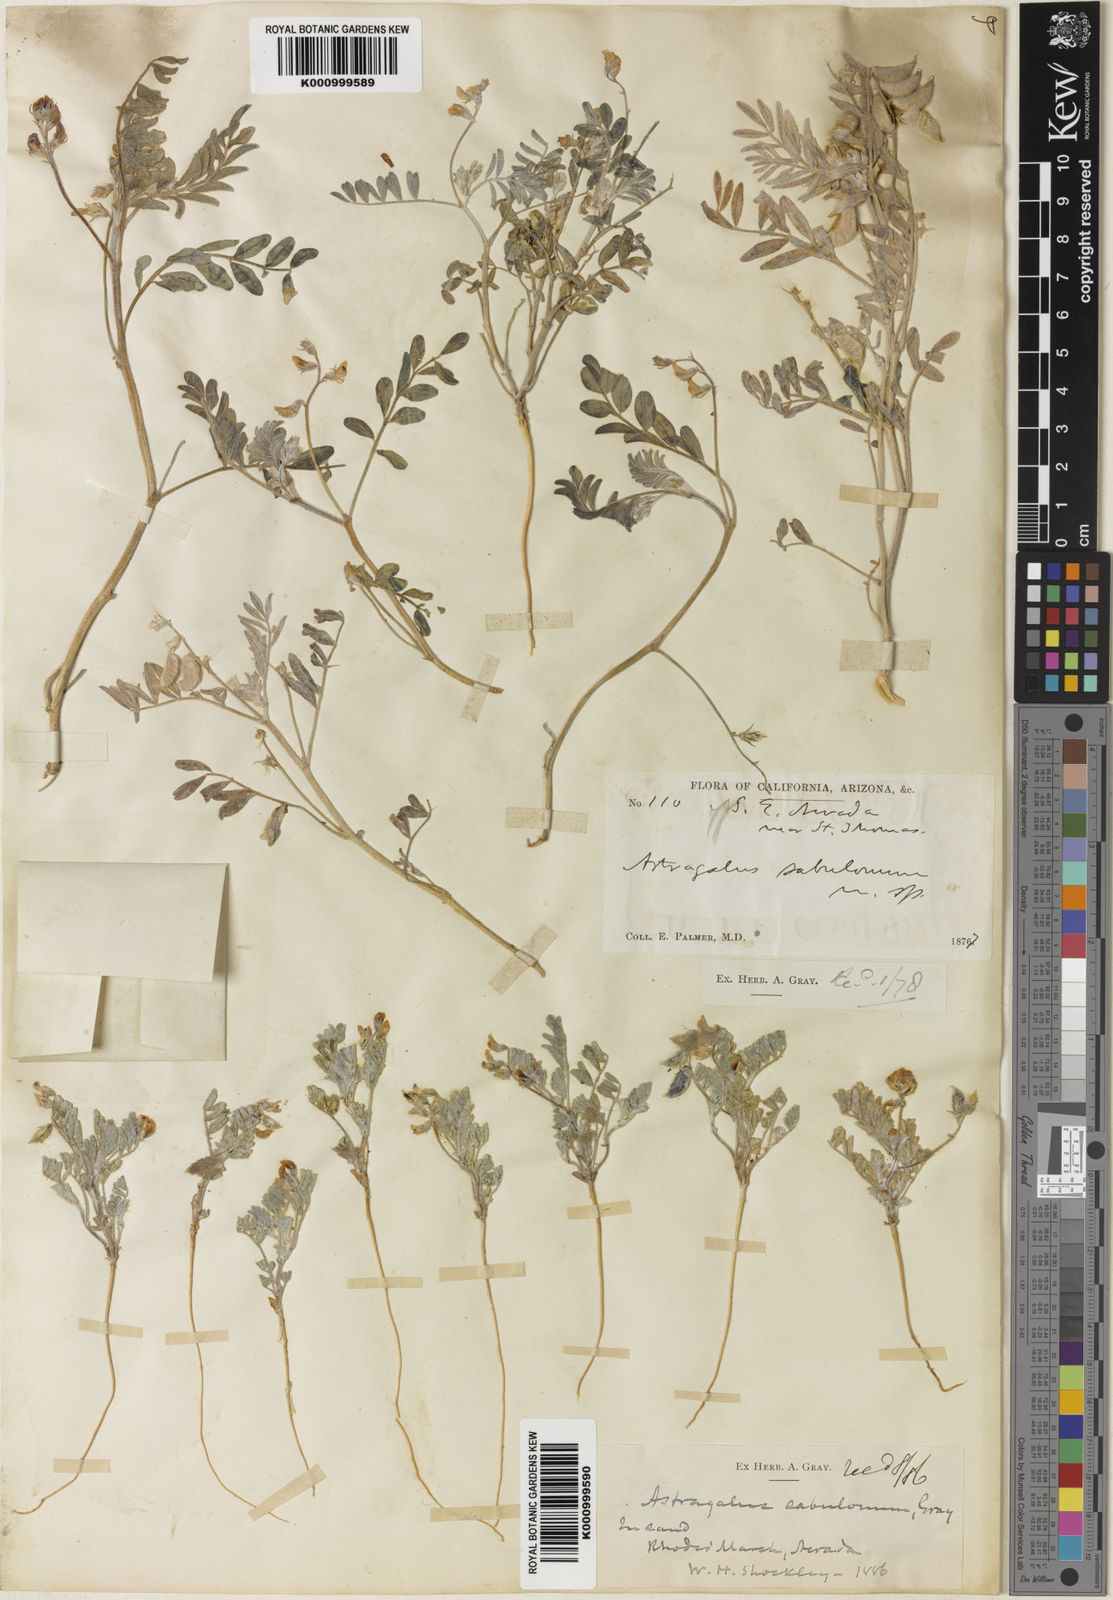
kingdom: Plantae
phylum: Tracheophyta
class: Magnoliopsida
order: Fabales
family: Fabaceae
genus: Astragalus
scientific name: Astragalus sabulonum
